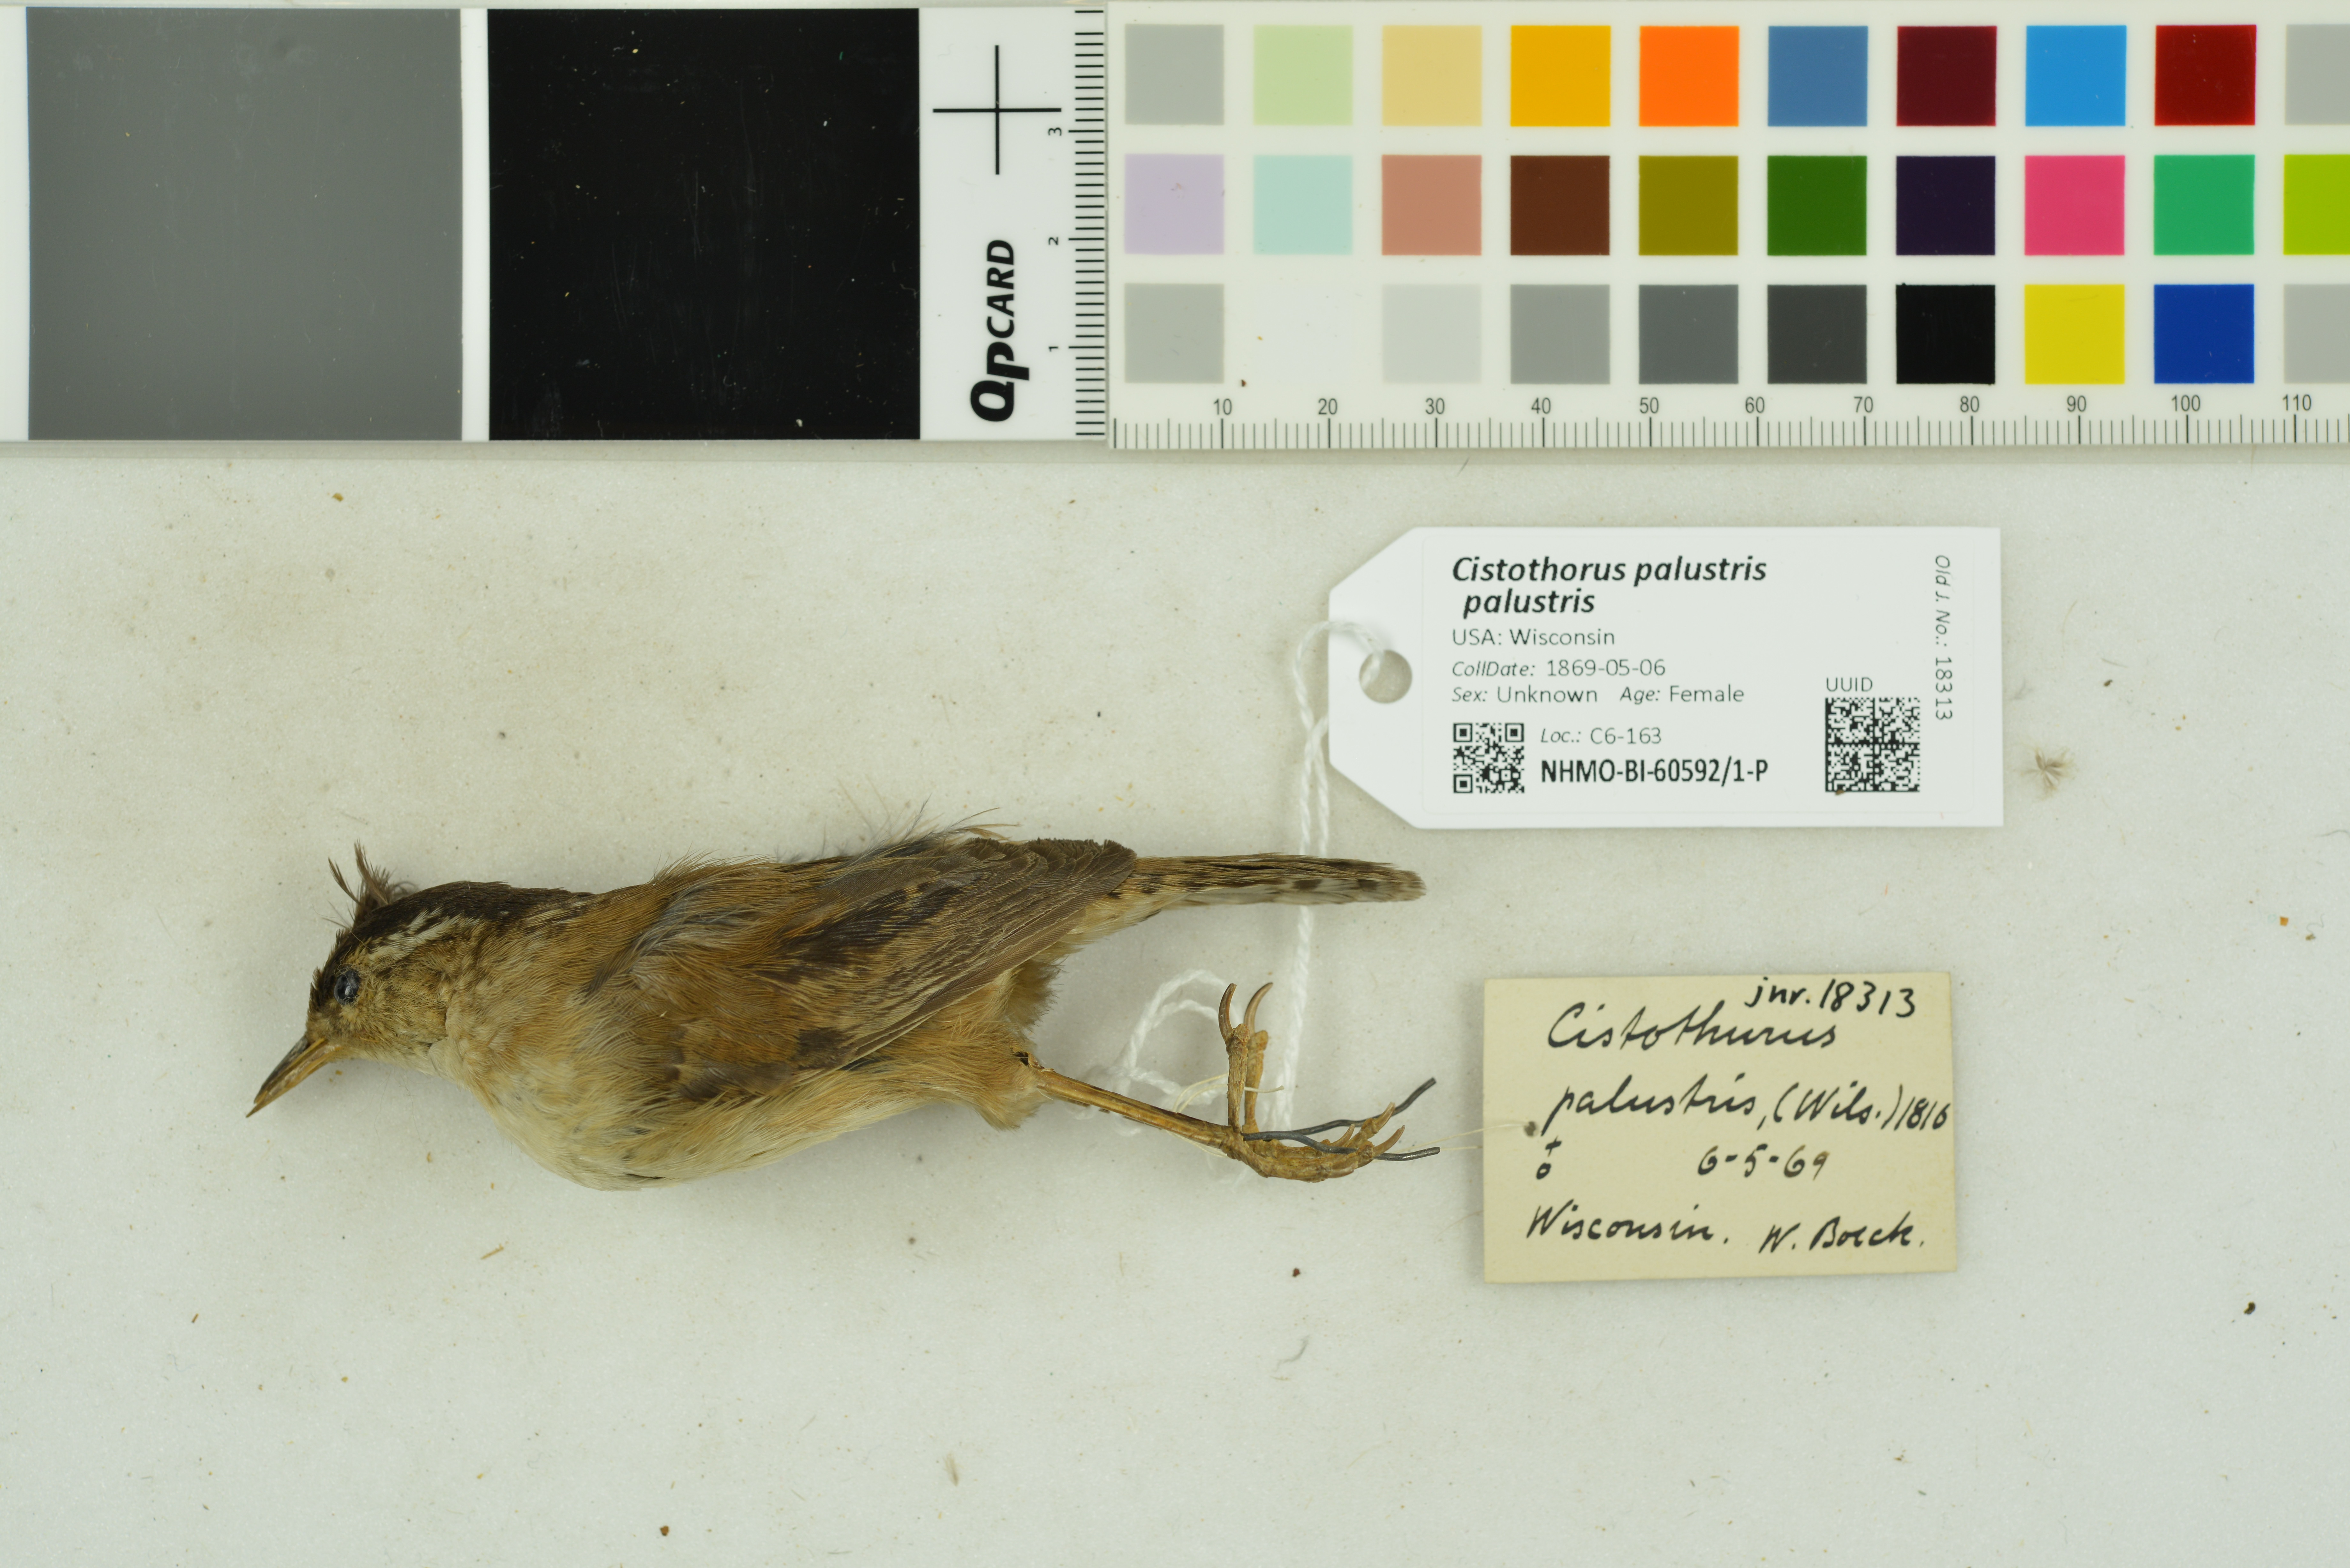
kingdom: Animalia
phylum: Chordata
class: Aves
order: Passeriformes
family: Troglodytidae
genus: Cistothorus
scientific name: Cistothorus palustris
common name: Marsh wren
